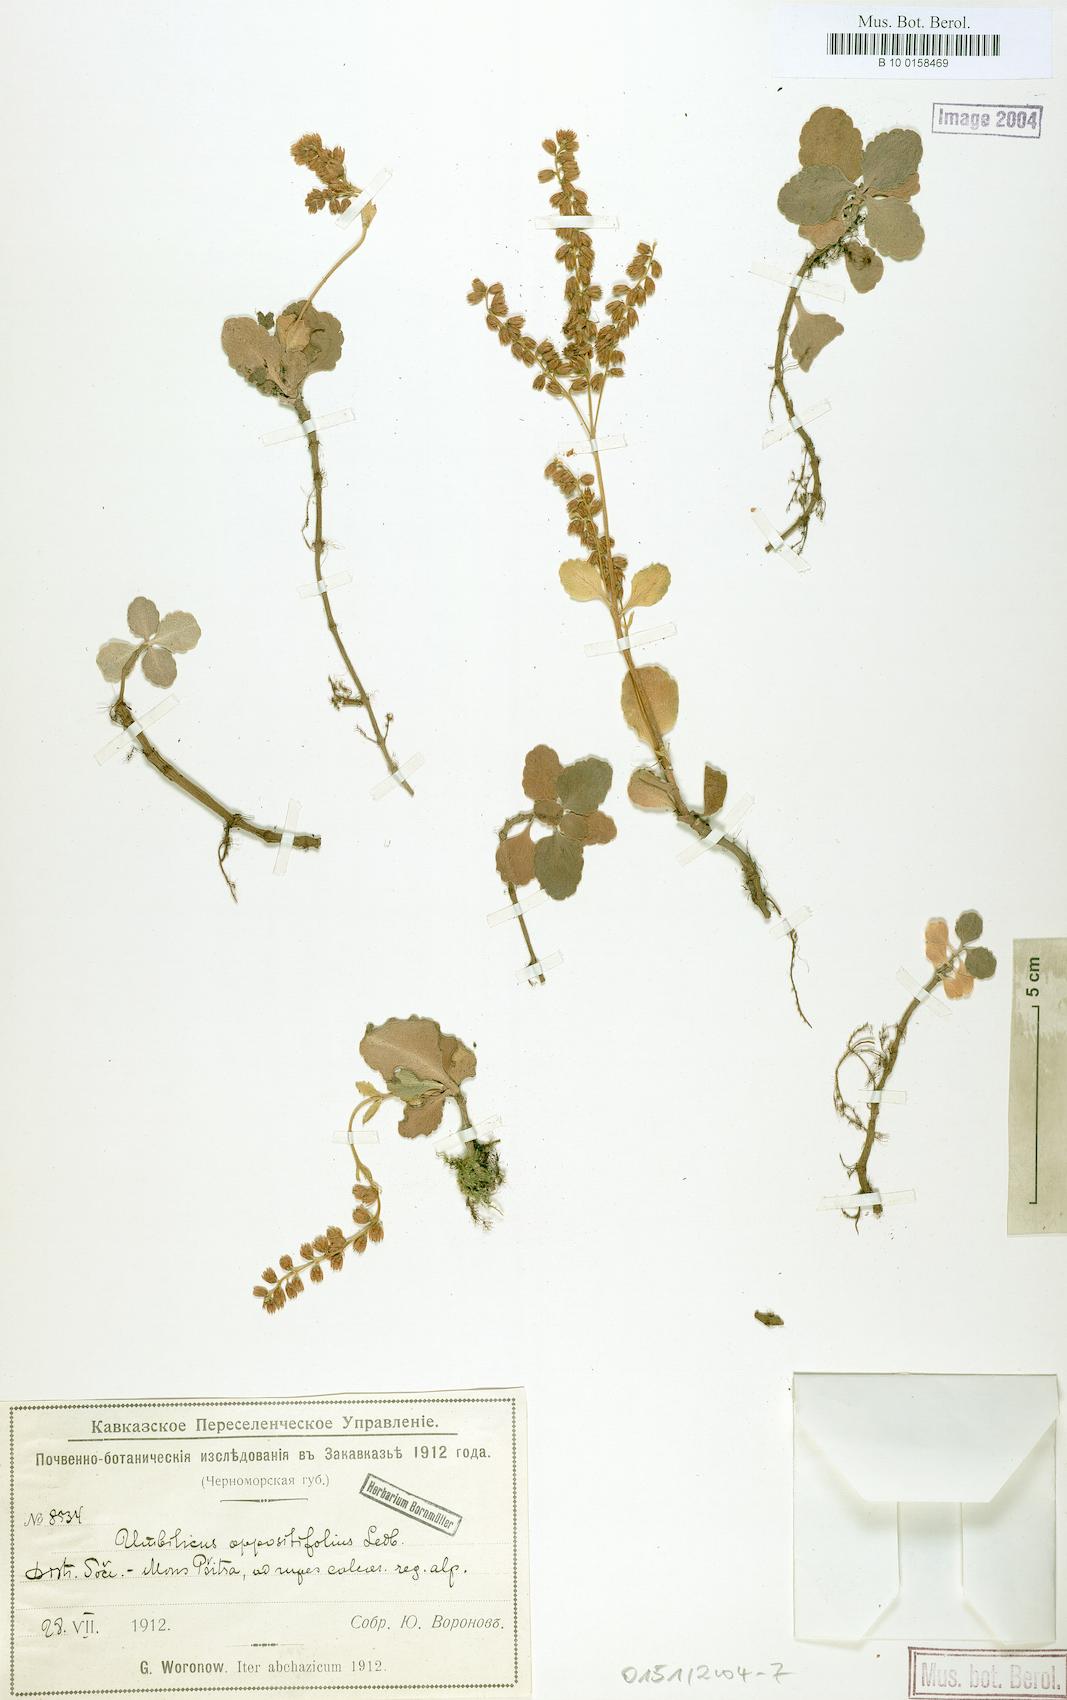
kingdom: Plantae
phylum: Tracheophyta
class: Magnoliopsida
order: Saxifragales
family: Crassulaceae
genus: Umbilicus
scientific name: Umbilicus oppositifolius
